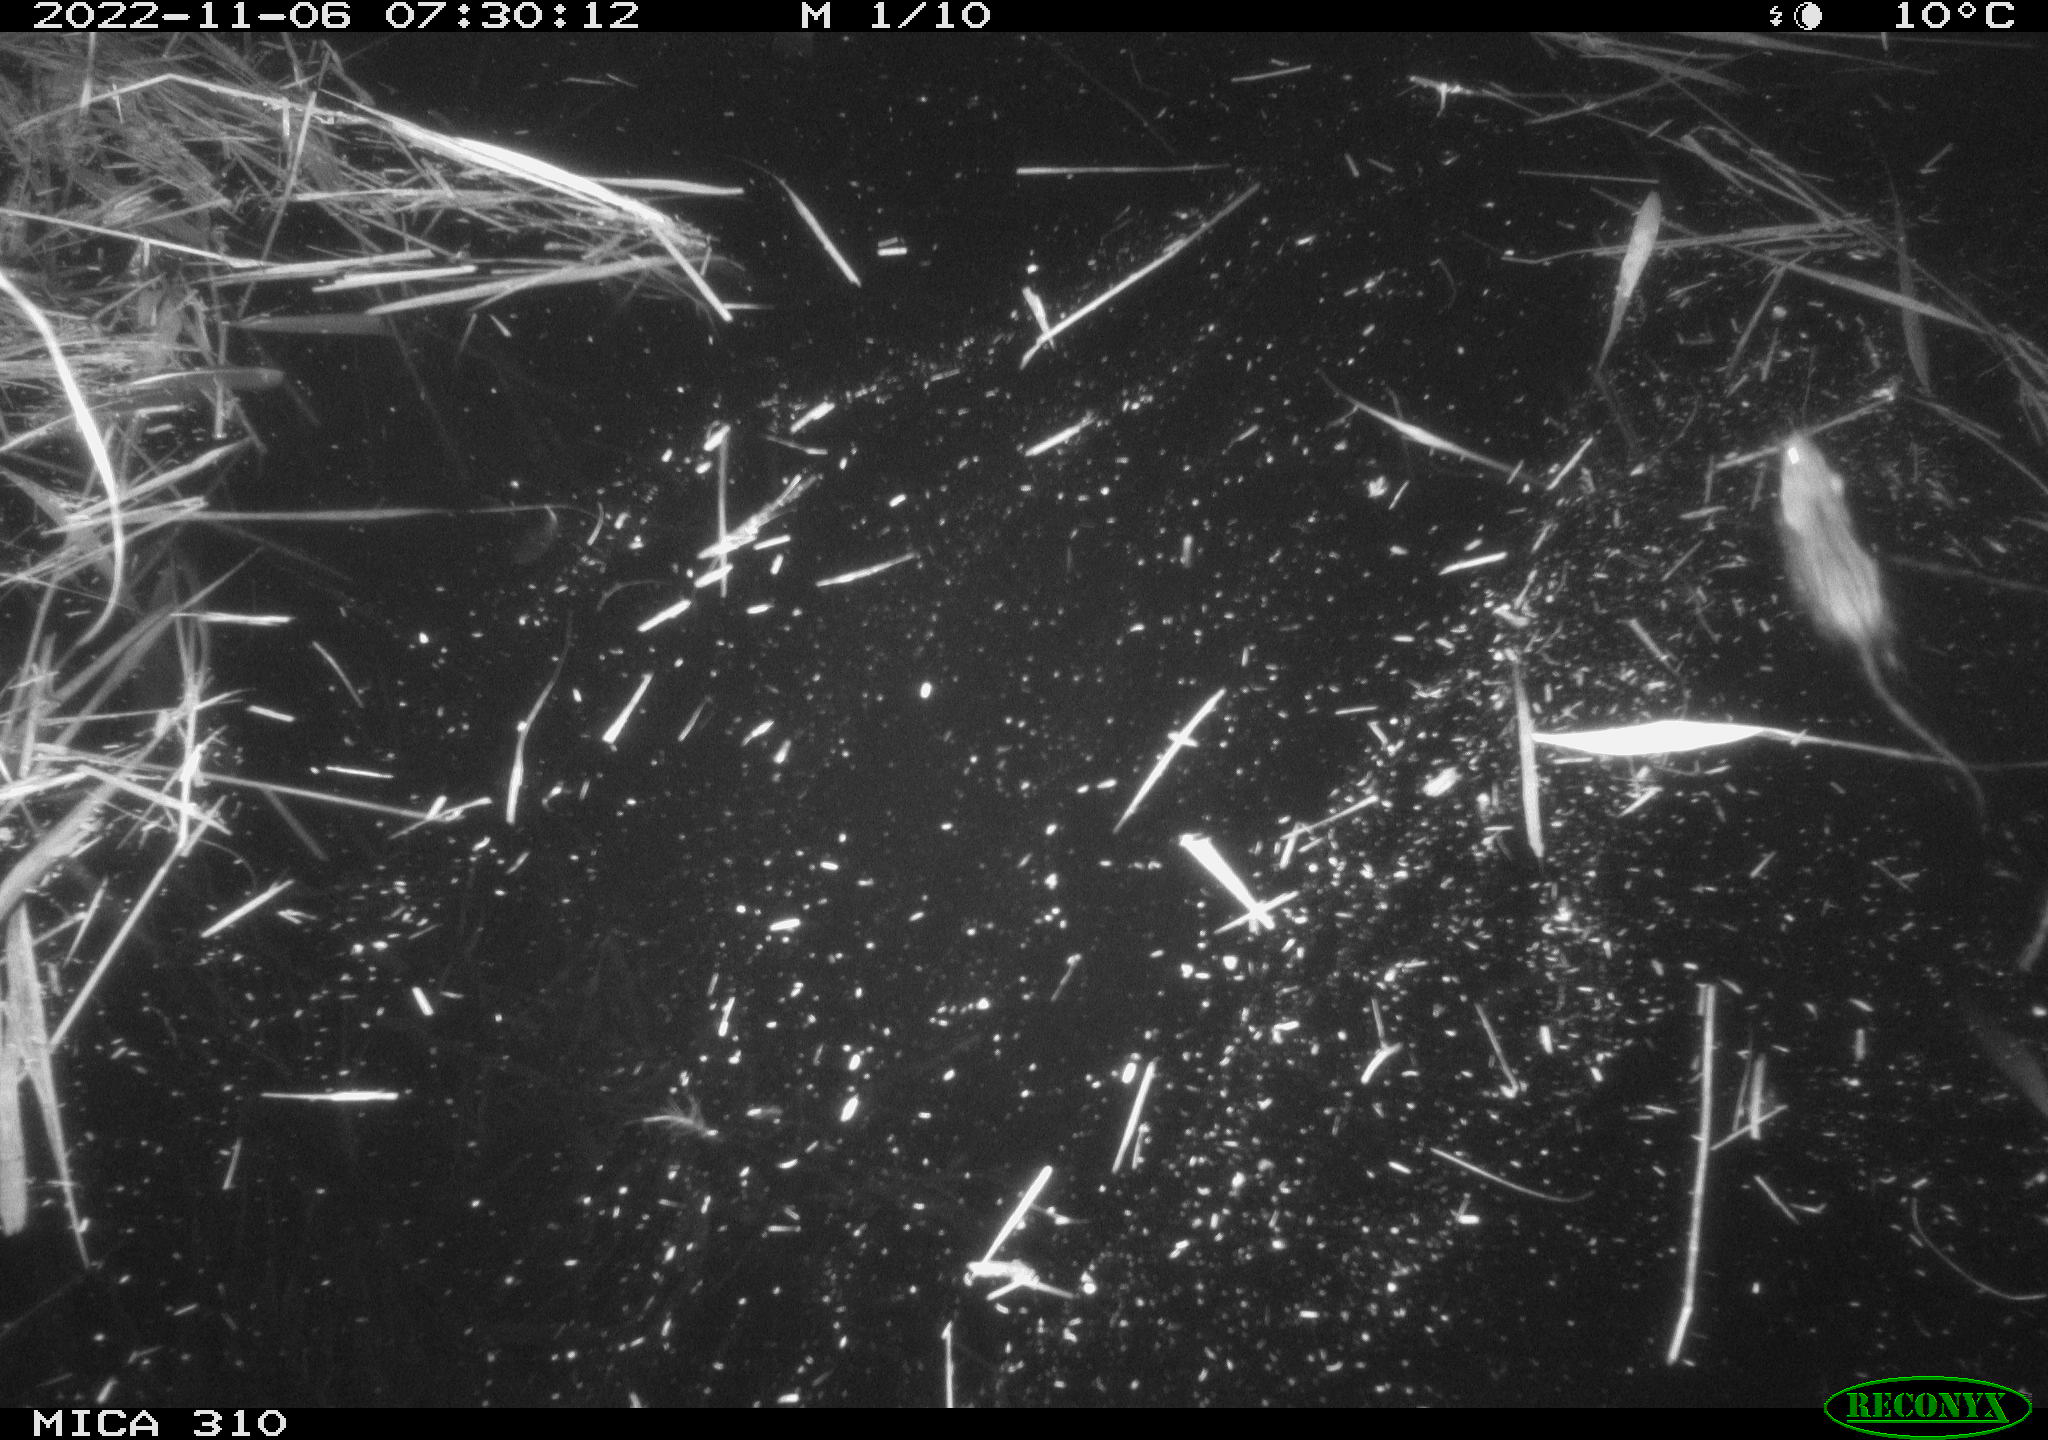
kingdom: Animalia
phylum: Chordata
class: Mammalia
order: Rodentia
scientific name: Rodentia
